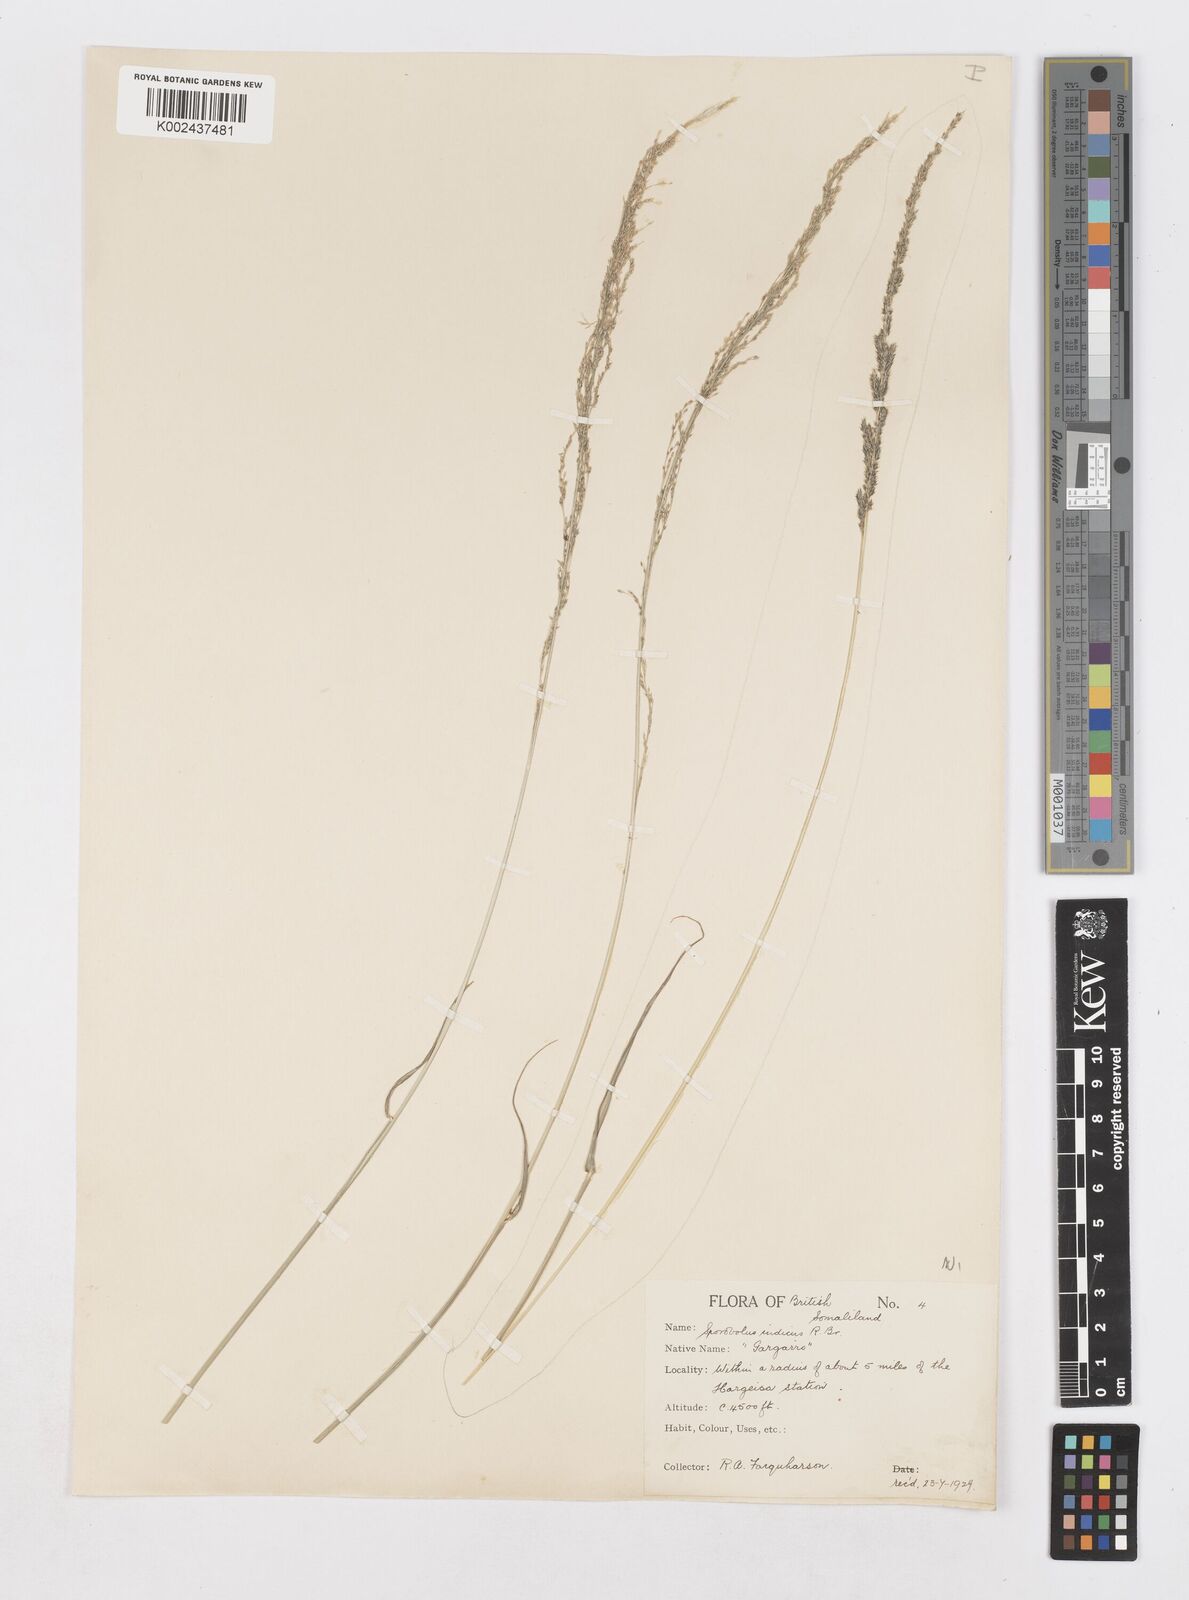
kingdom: Plantae
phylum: Tracheophyta
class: Liliopsida
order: Poales
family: Poaceae
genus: Sporobolus
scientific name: Sporobolus nervosus
